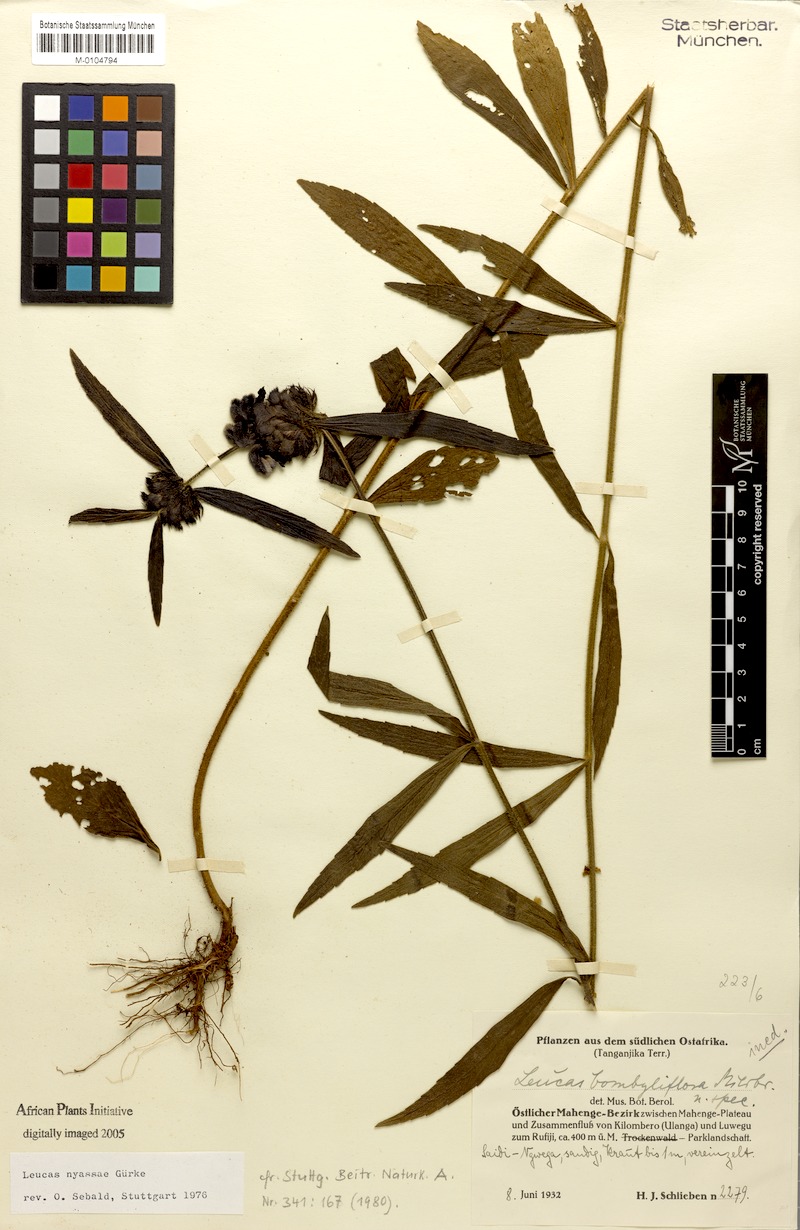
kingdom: Plantae
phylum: Tracheophyta
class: Magnoliopsida
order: Lamiales
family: Lamiaceae
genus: Leucas
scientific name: Leucas nyassae
